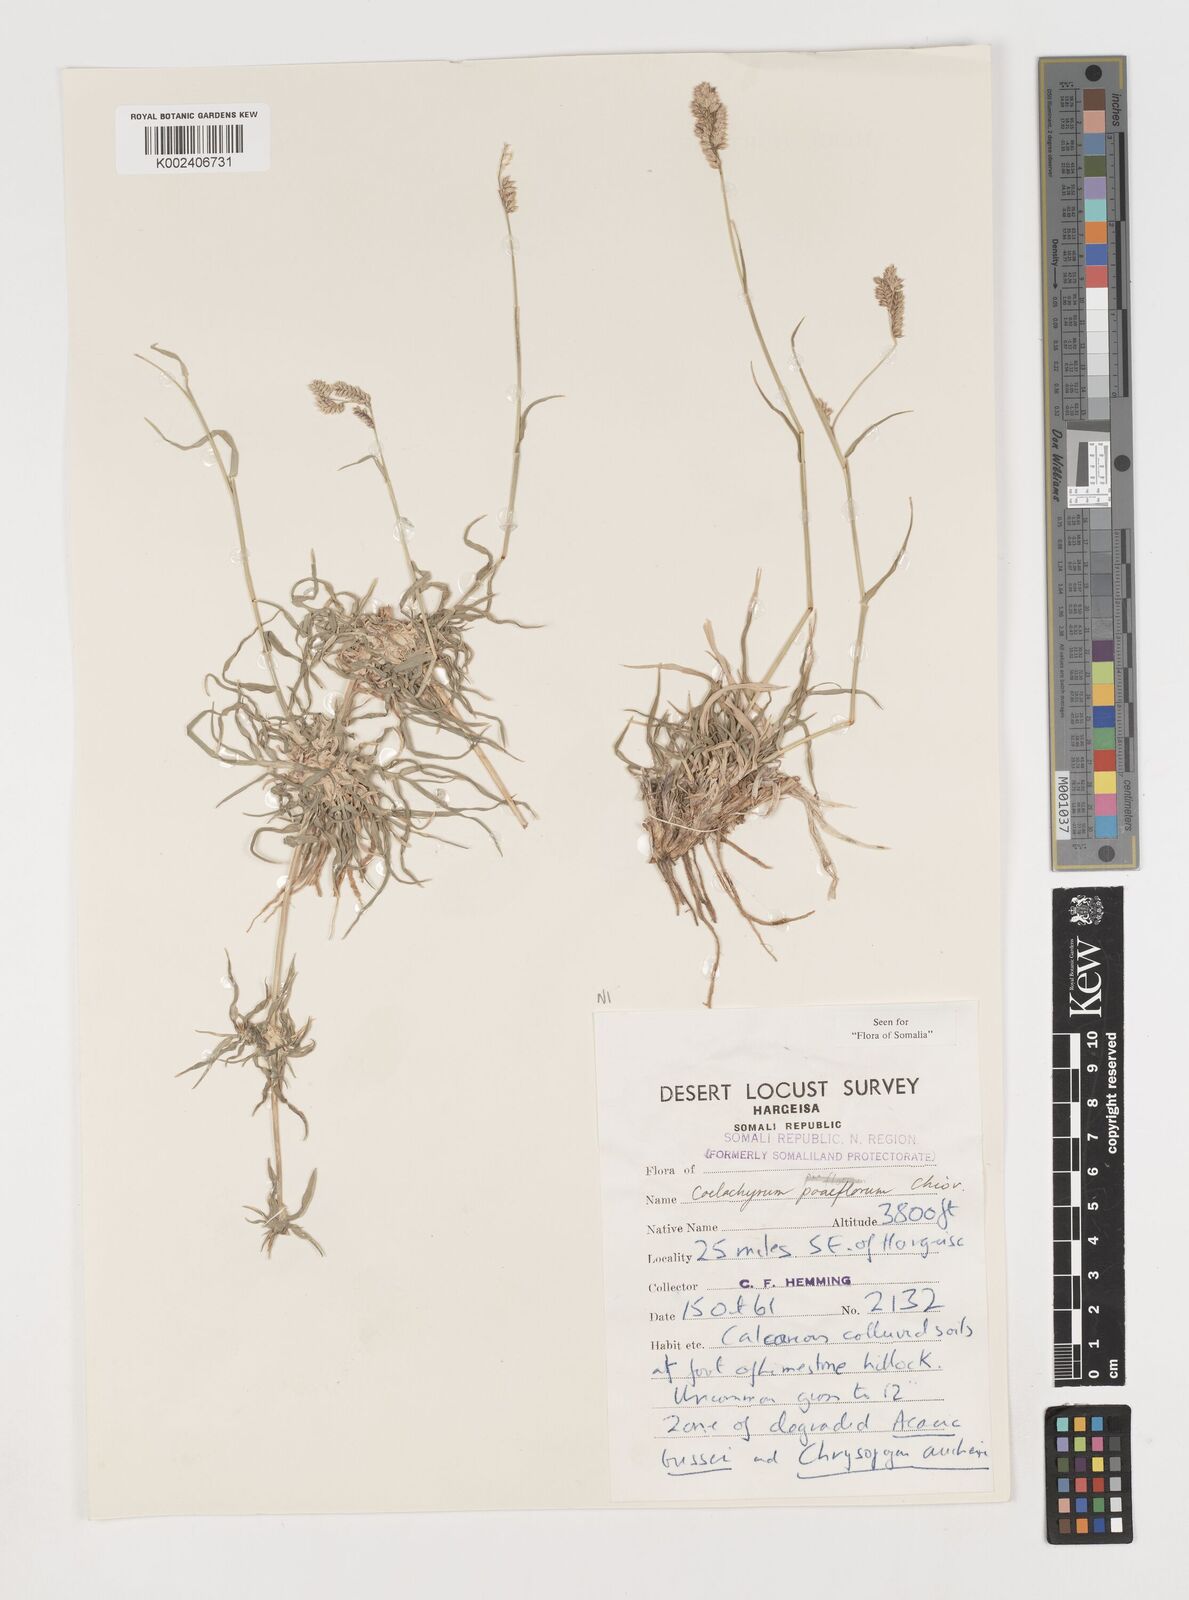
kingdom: Plantae
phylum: Tracheophyta
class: Liliopsida
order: Poales
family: Poaceae
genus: Coelachyrum
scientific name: Coelachyrum poiflorum
